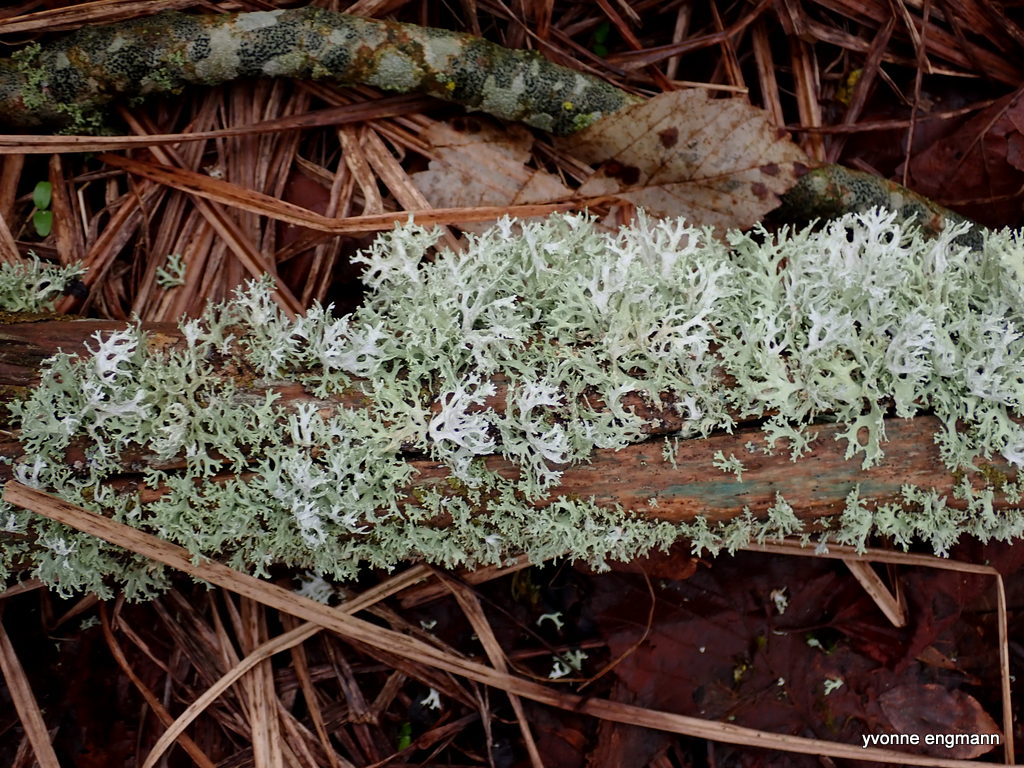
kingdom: Fungi
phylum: Ascomycota
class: Lecanoromycetes
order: Lecanorales
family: Parmeliaceae
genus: Evernia
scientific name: Evernia prunastri
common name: almindelig slåenlav
